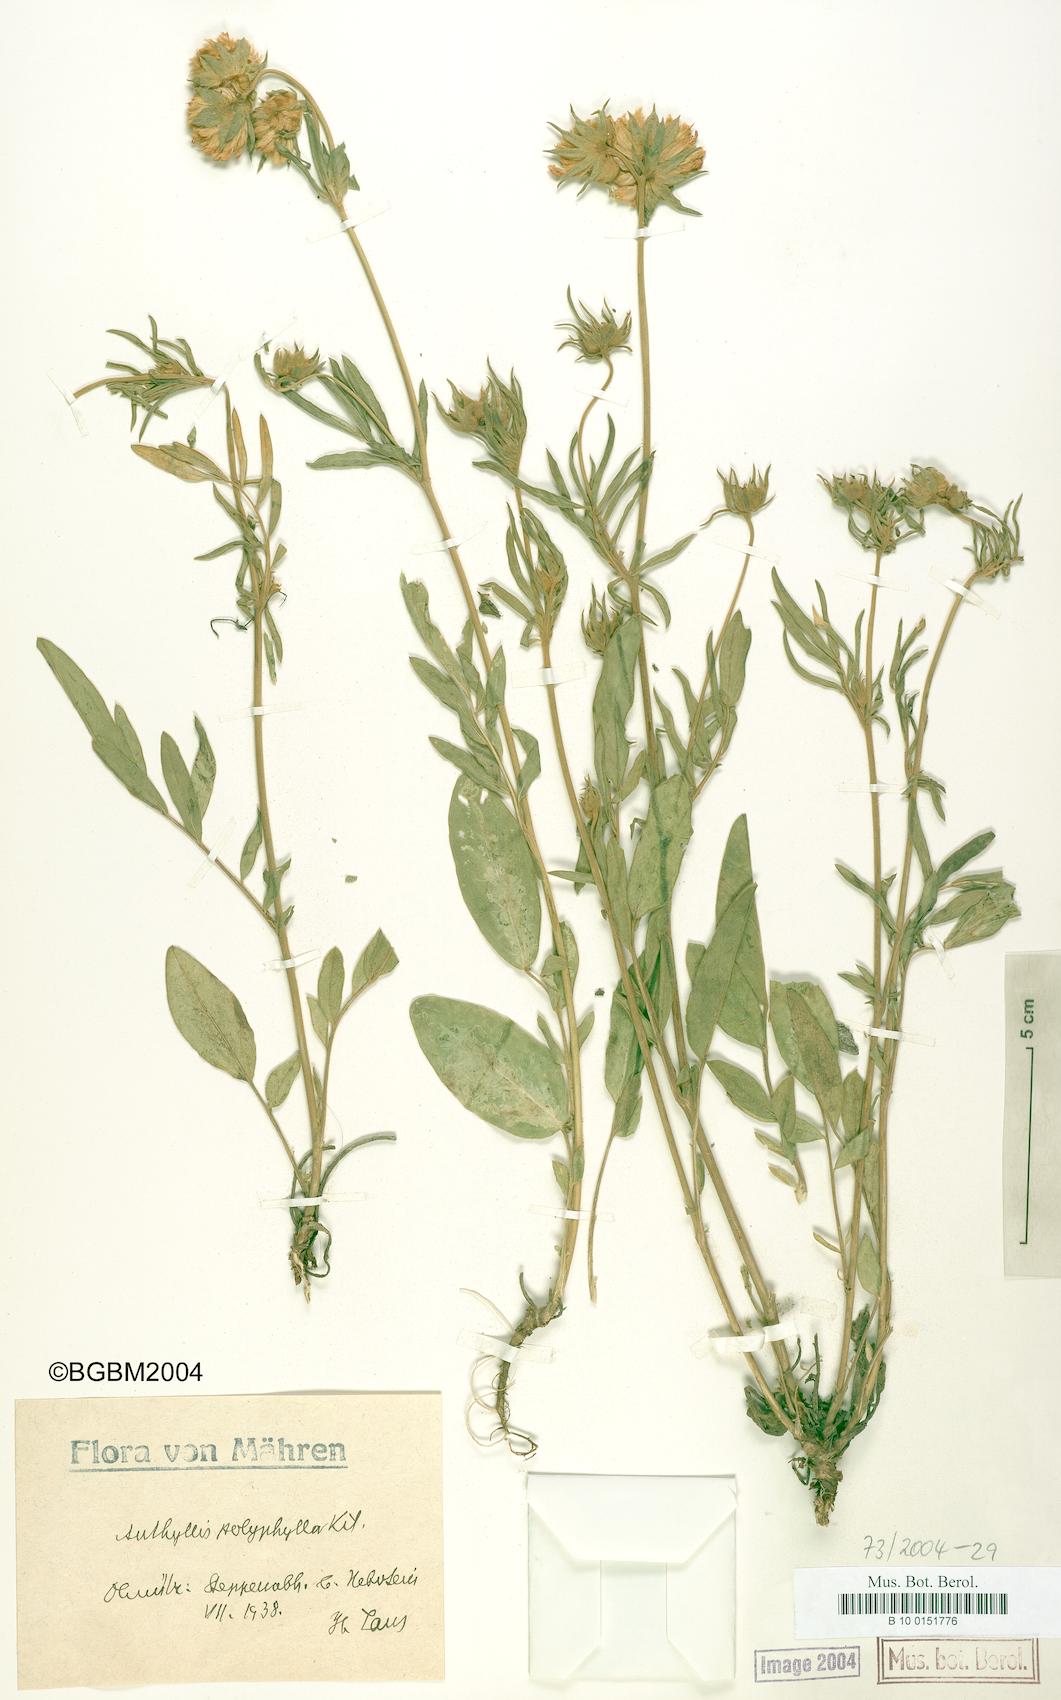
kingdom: Plantae
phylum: Tracheophyta
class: Magnoliopsida
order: Fabales
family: Fabaceae
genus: Anthyllis
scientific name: Anthyllis vulneraria
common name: Kidney vetch
